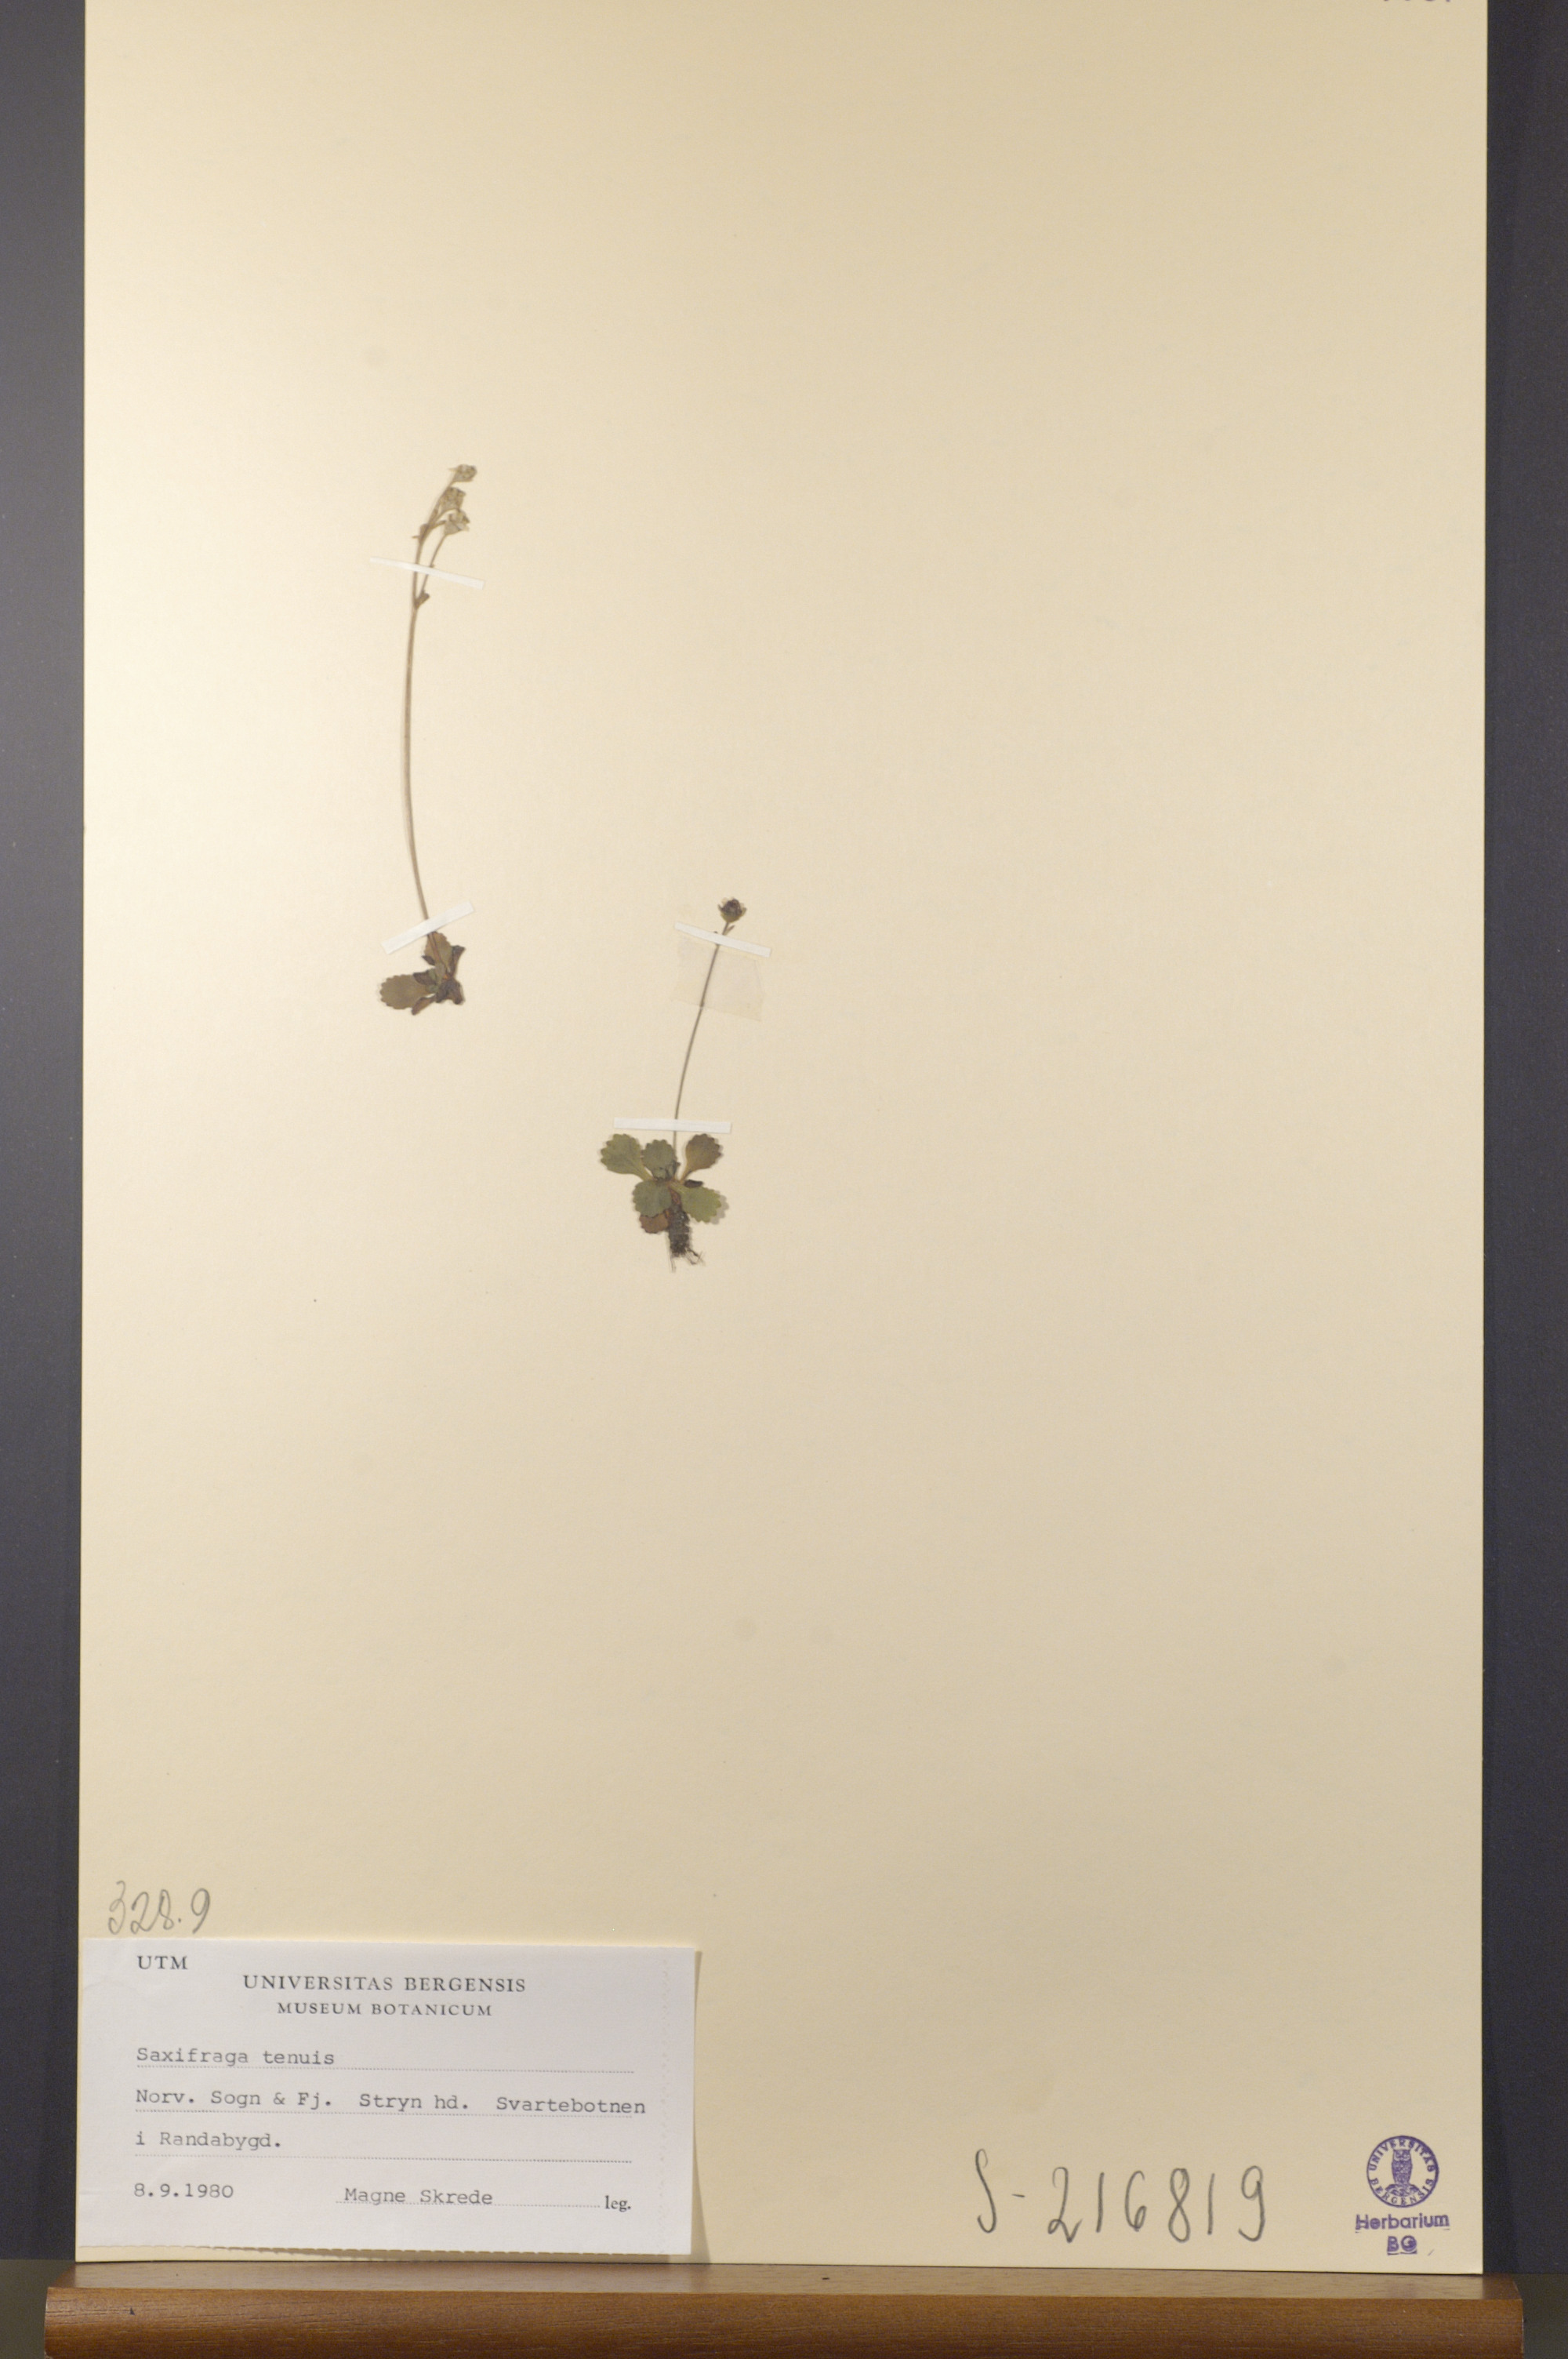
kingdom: Plantae
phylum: Tracheophyta
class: Magnoliopsida
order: Saxifragales
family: Saxifragaceae
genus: Micranthes
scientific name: Micranthes tenuis
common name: Ottertail pass saxifrage
